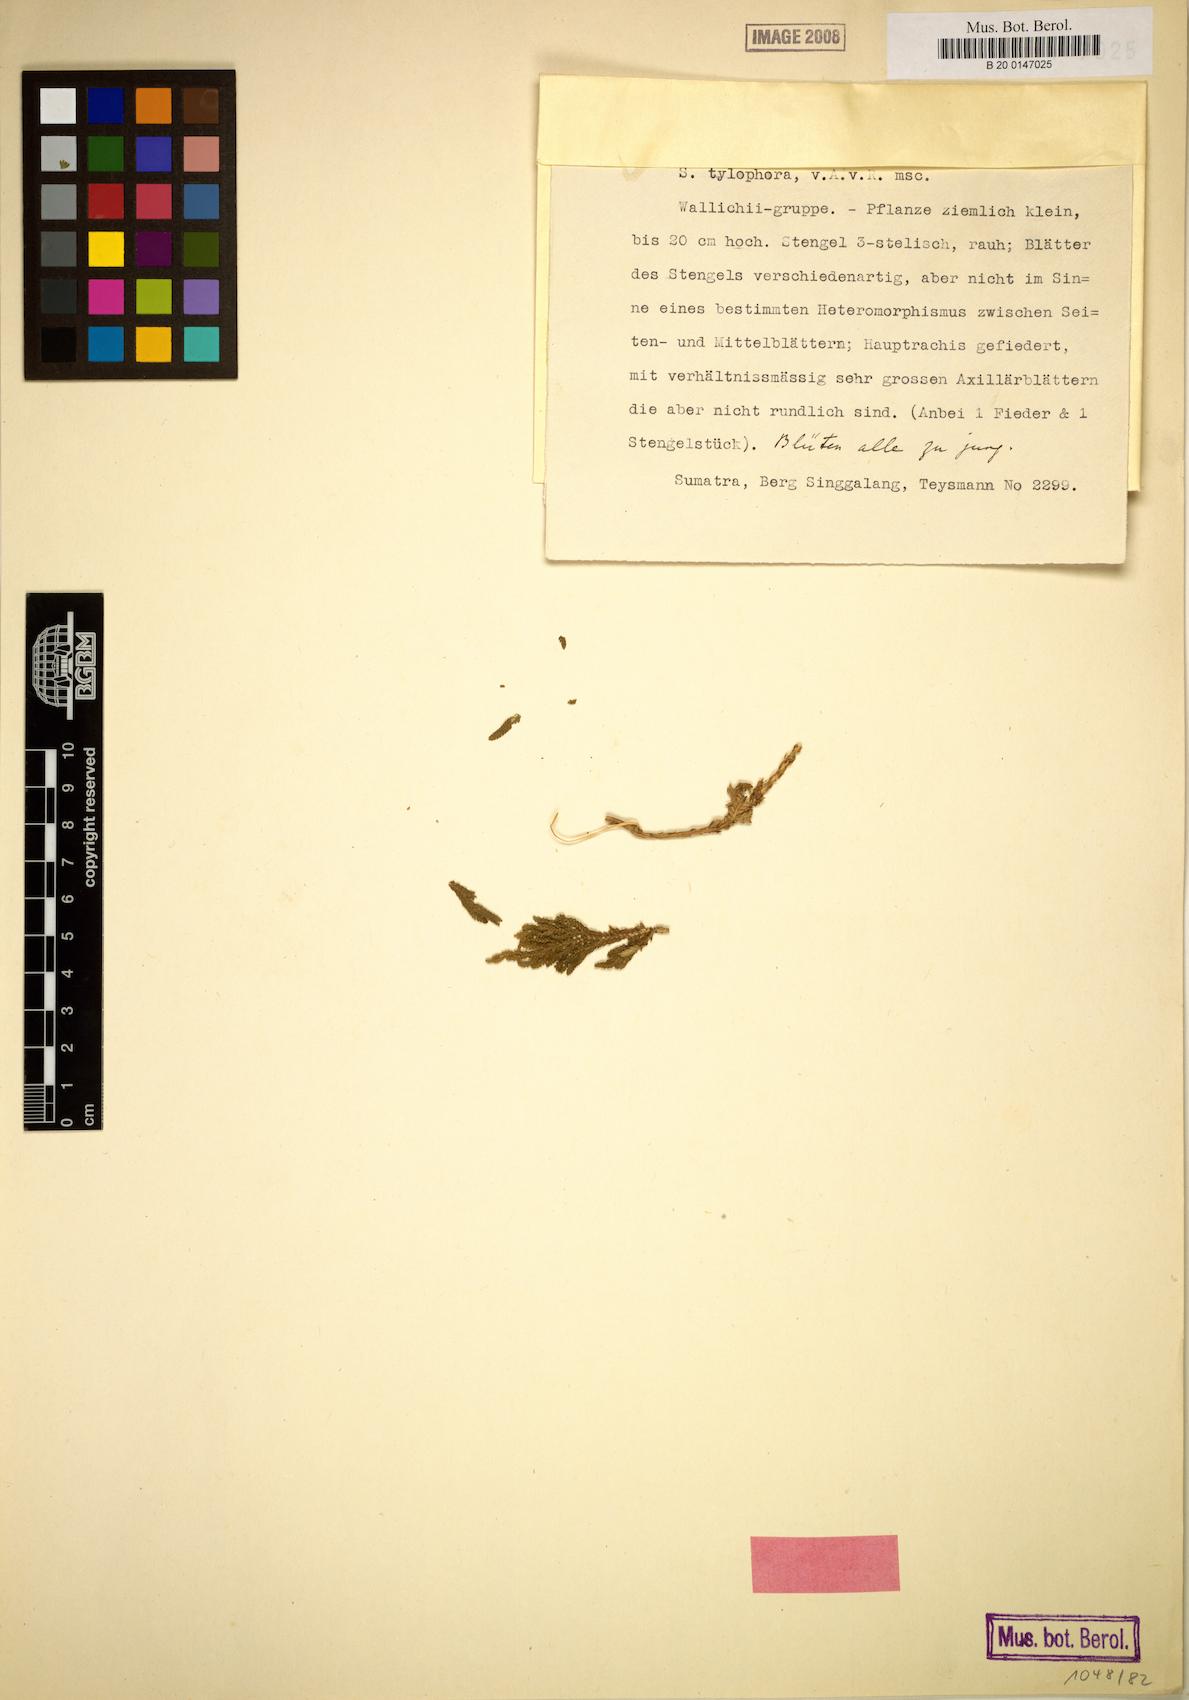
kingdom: Plantae
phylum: Tracheophyta
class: Lycopodiopsida
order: Selaginellales
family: Selaginellaceae
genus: Selaginella
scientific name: Selaginella tylophora
